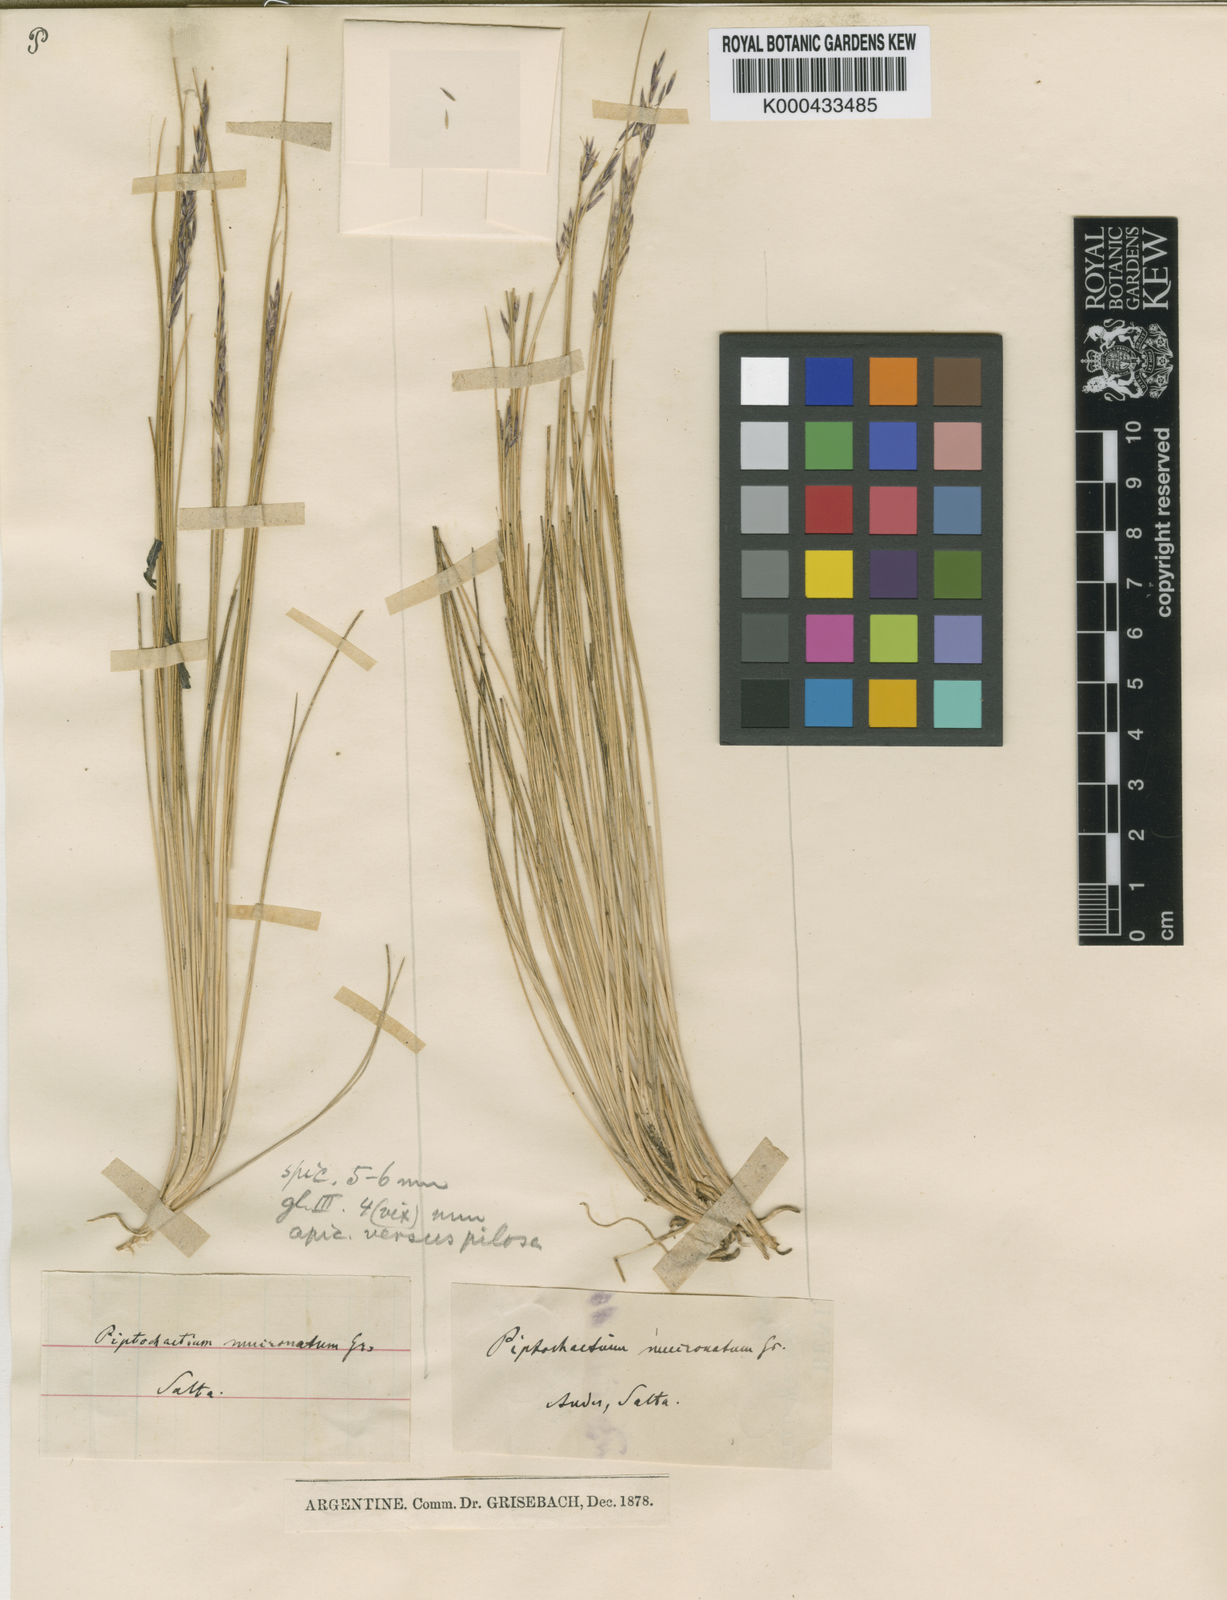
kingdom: Plantae
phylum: Tracheophyta
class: Liliopsida
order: Poales
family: Poaceae
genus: Stipa
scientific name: Stipa
